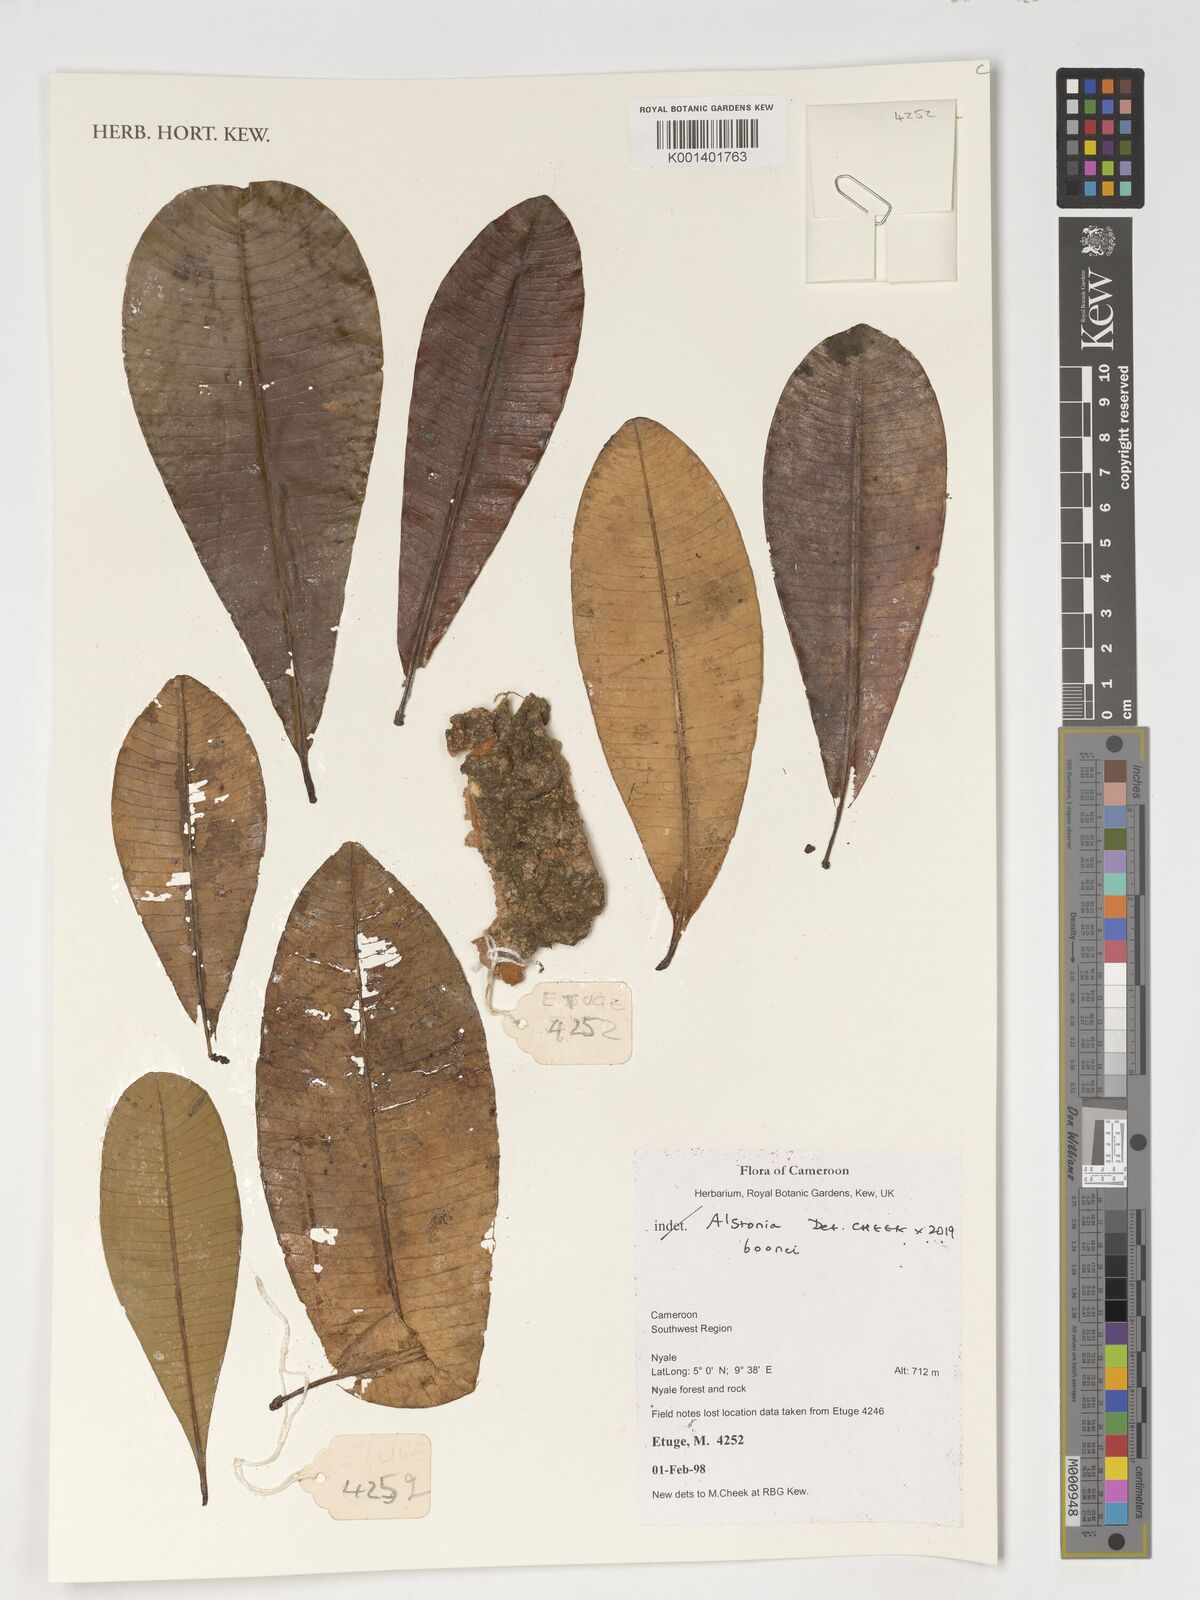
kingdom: Plantae
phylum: Tracheophyta
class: Magnoliopsida
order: Gentianales
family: Apocynaceae
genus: Alstonia
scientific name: Alstonia boonei
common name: Alstonia
